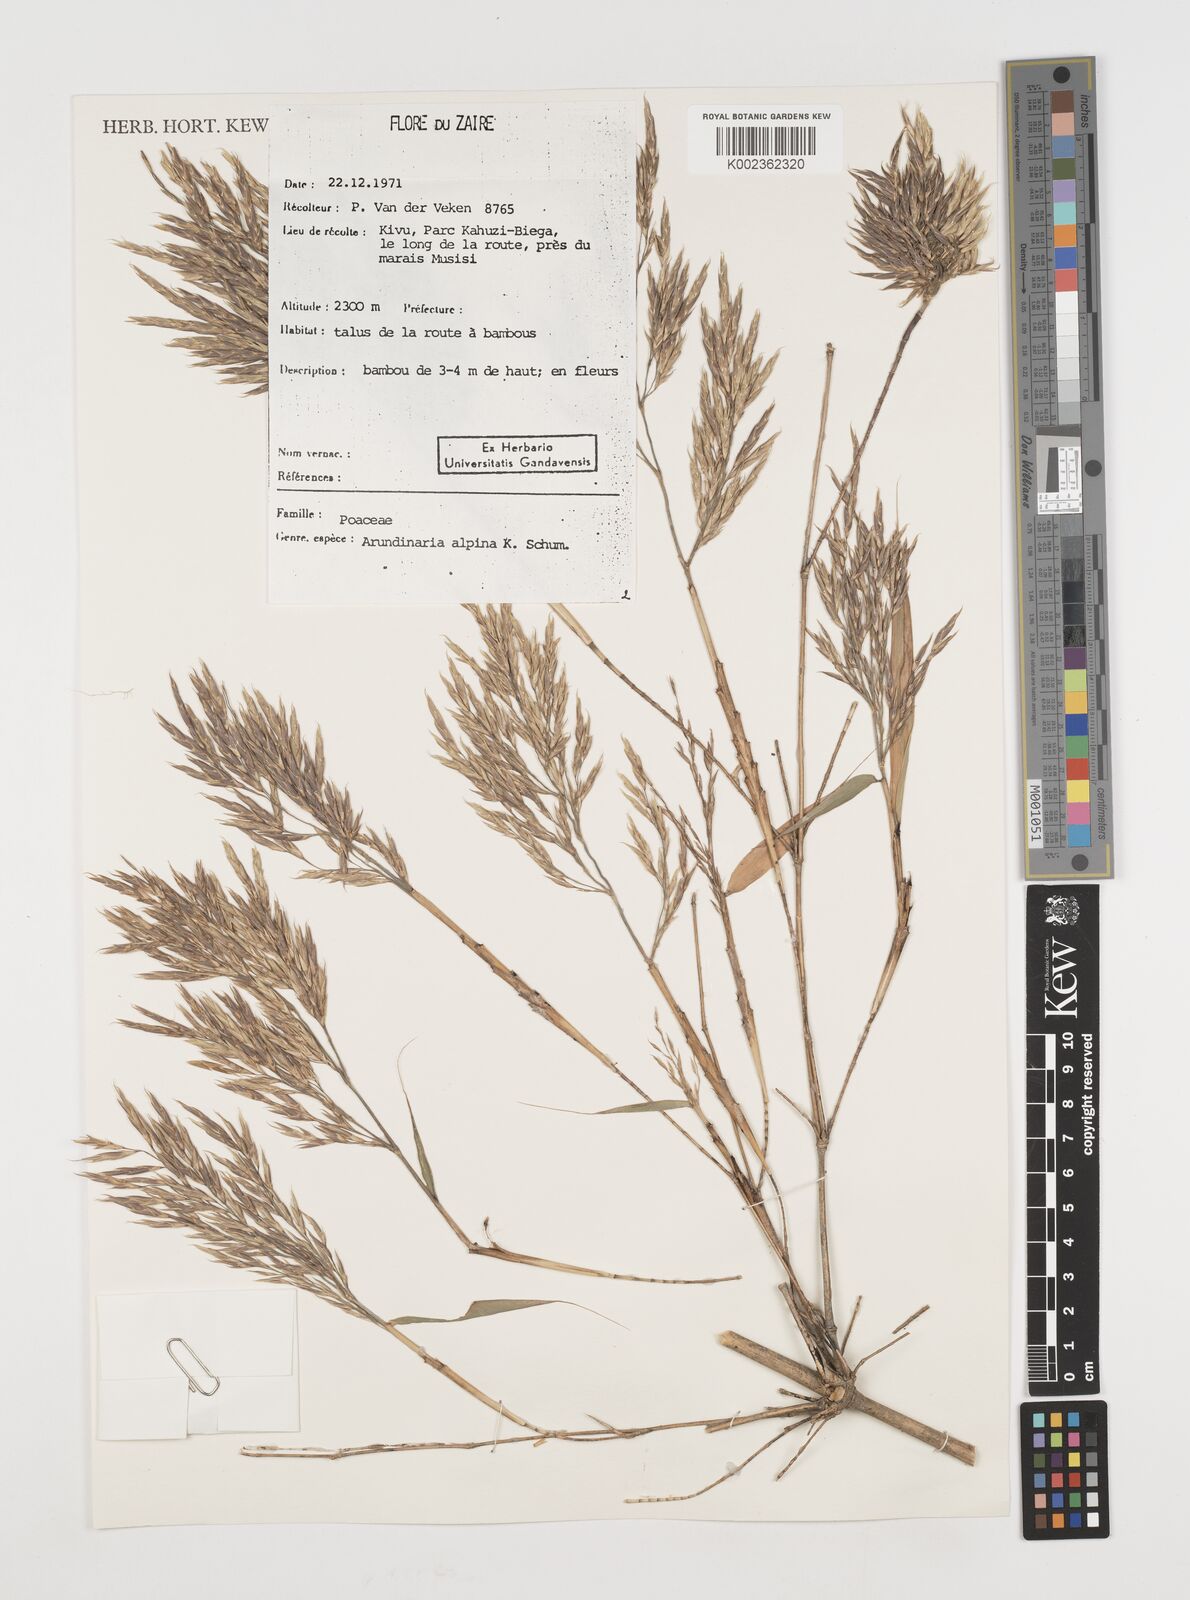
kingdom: Plantae
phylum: Tracheophyta
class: Liliopsida
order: Poales
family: Poaceae
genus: Oldeania
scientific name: Oldeania alpina
